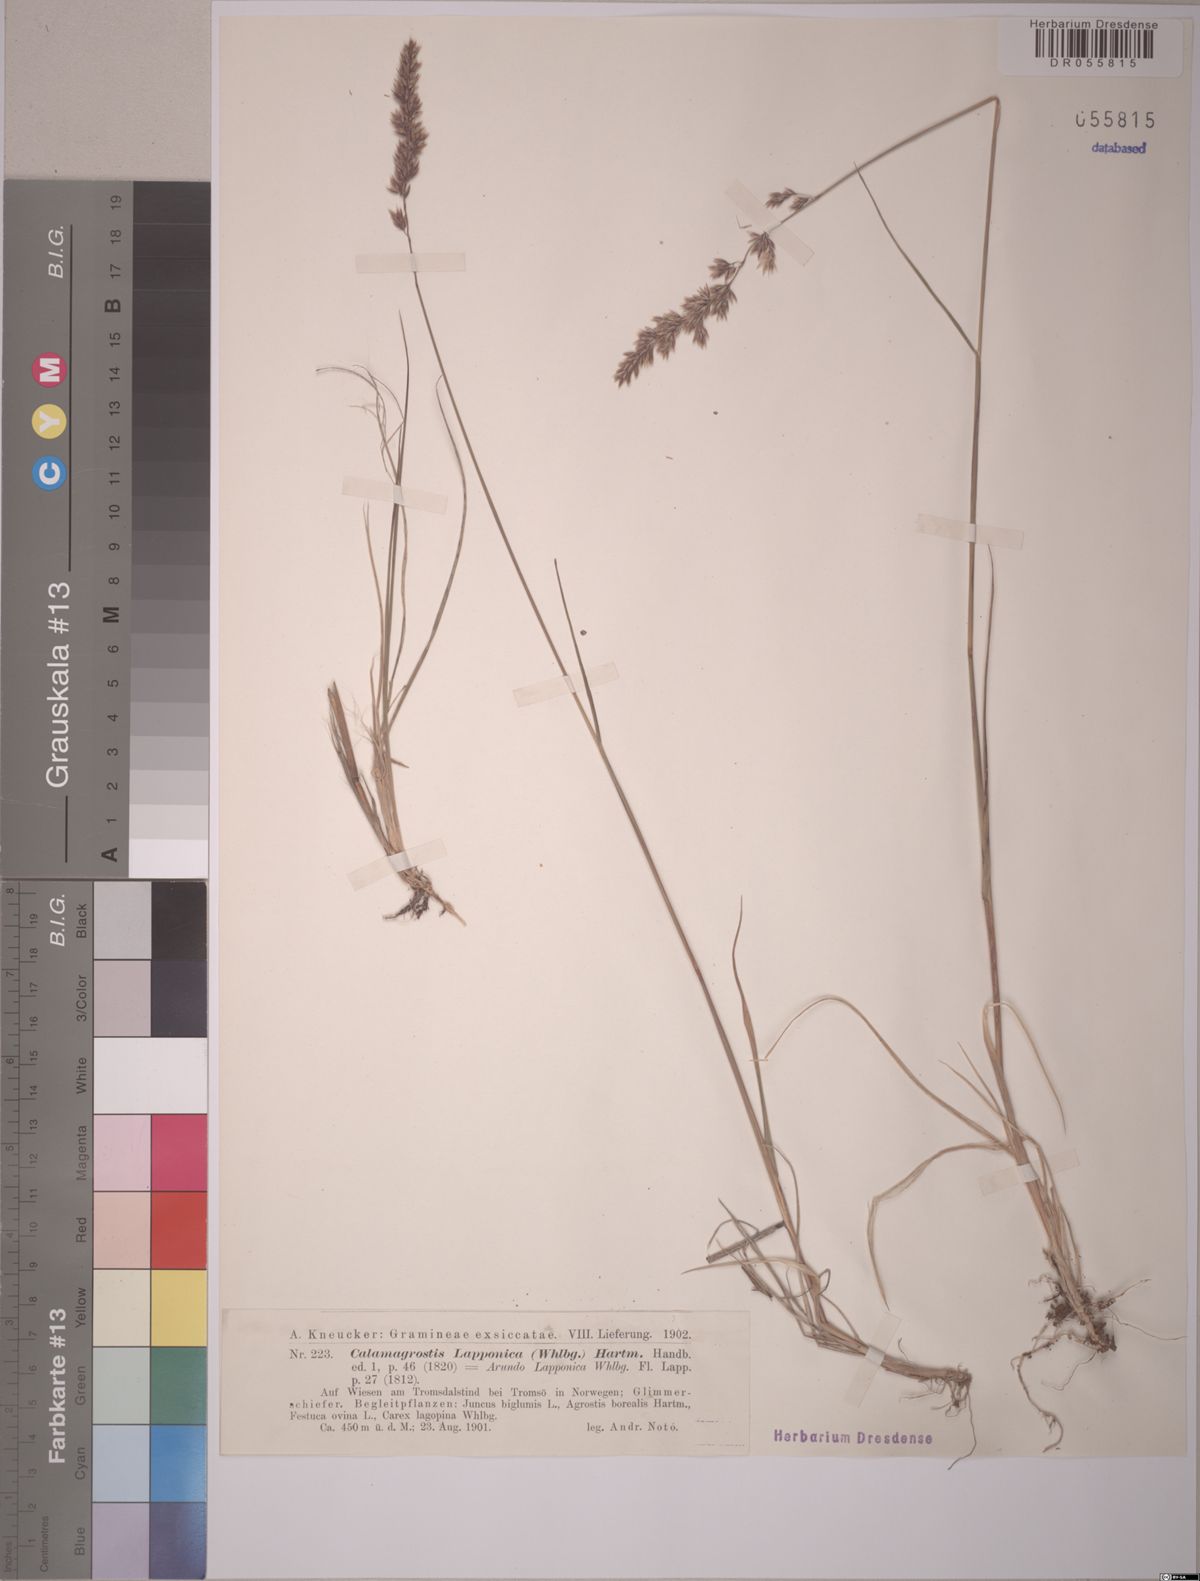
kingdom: Plantae
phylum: Tracheophyta
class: Liliopsida
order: Poales
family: Poaceae
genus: Calamagrostis
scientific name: Calamagrostis lapponica
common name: Lapland reedgrass
